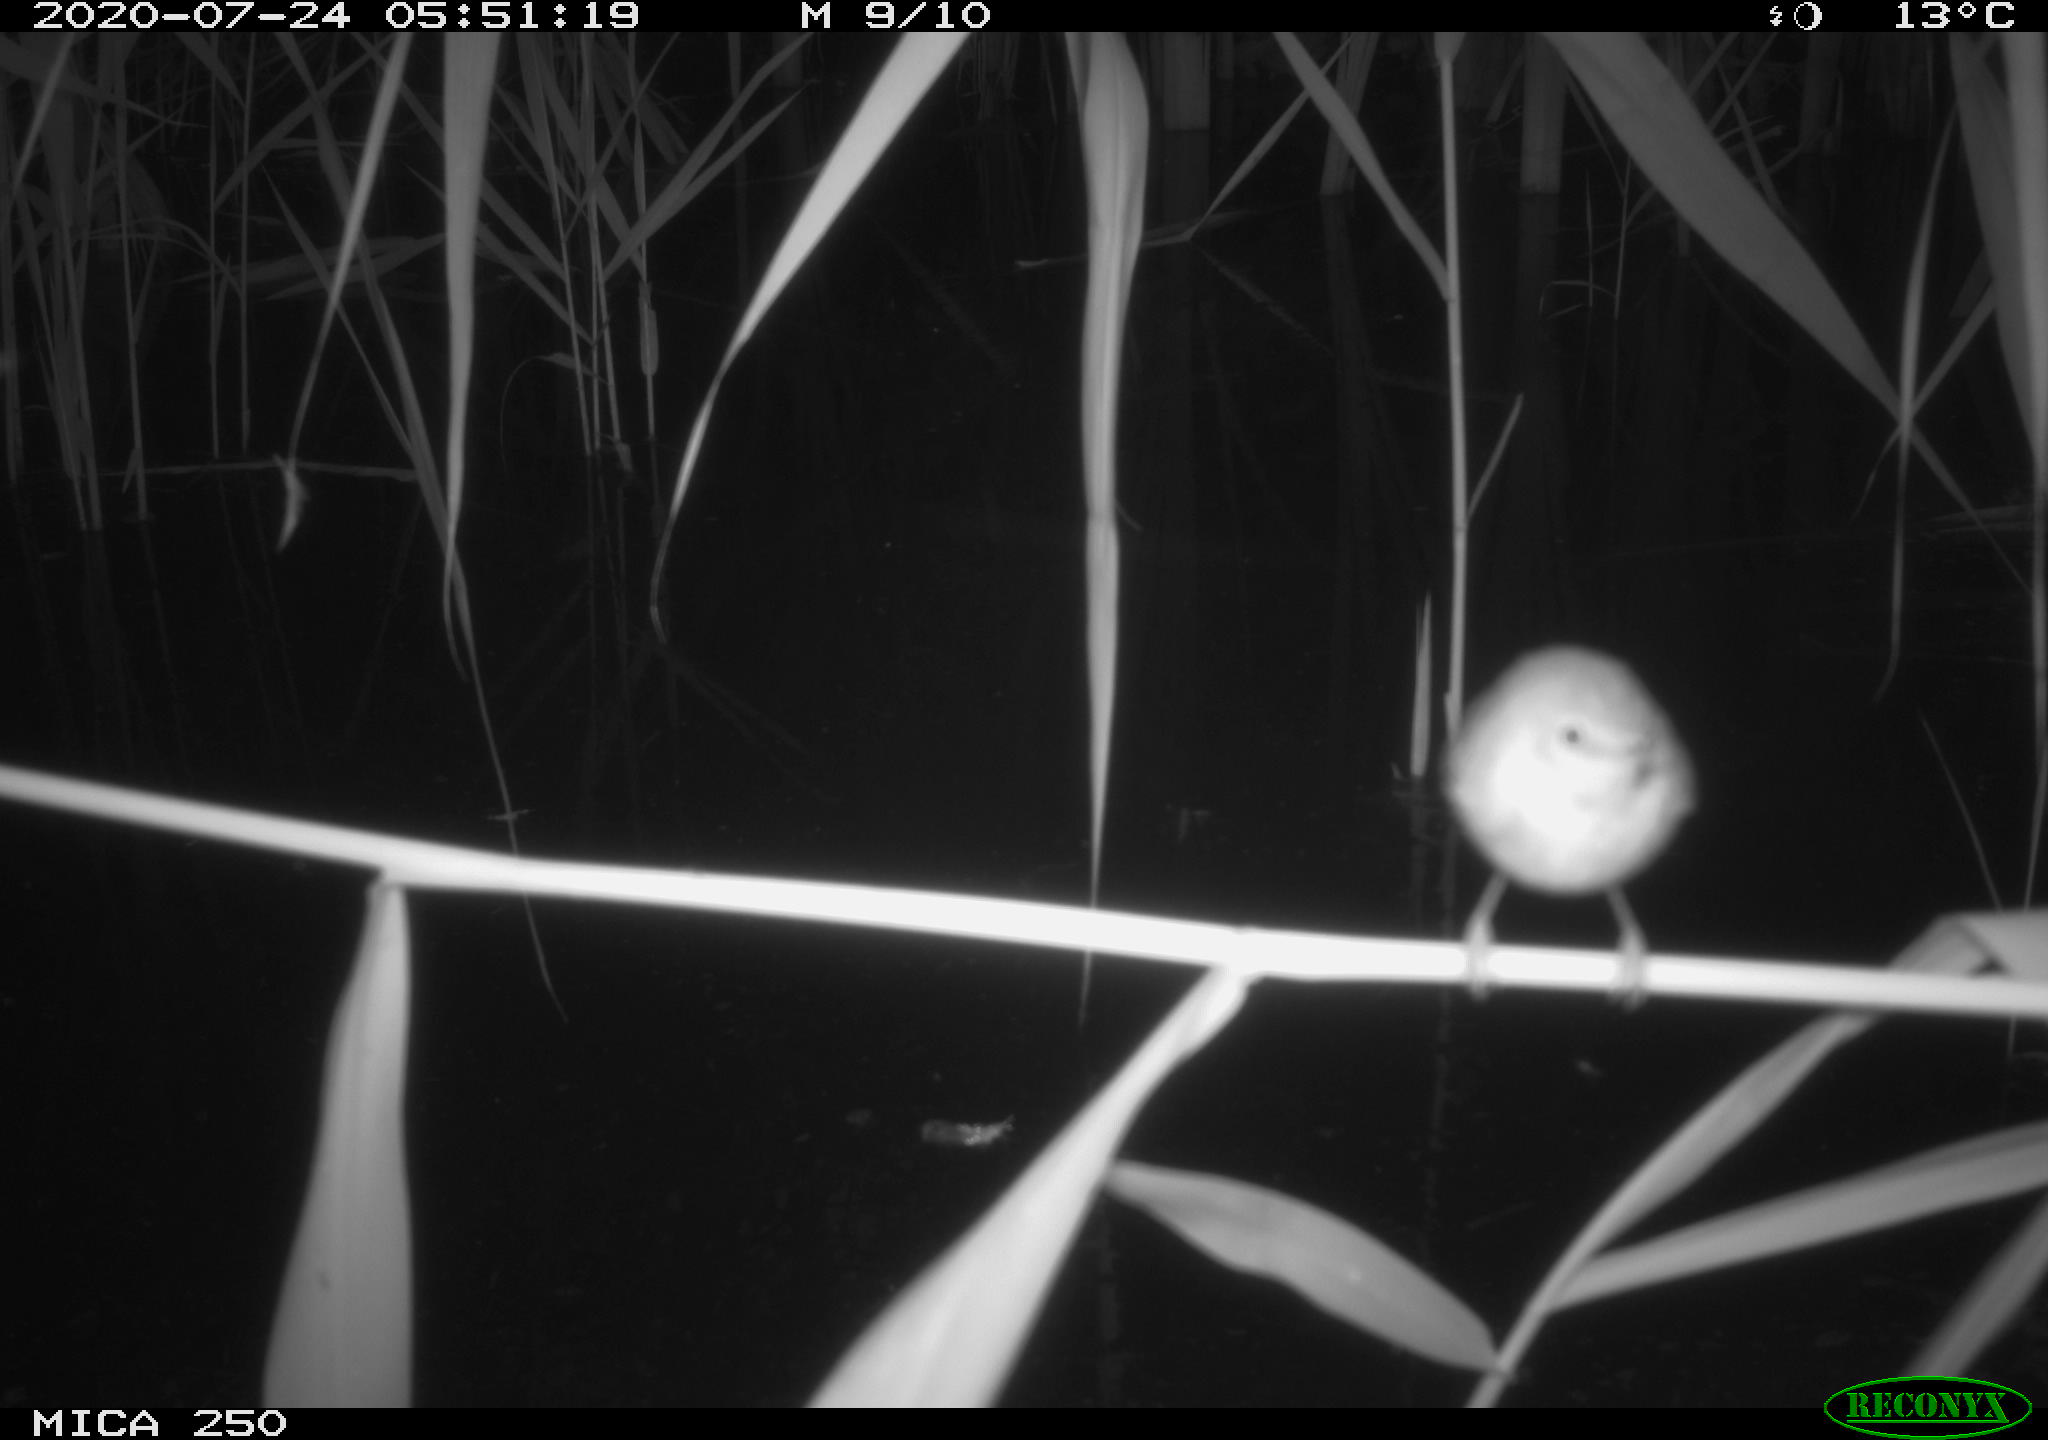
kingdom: Animalia
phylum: Chordata
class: Aves
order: Passeriformes
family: Acrocephalidae
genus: Acrocephalus
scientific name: Acrocephalus scirpaceus
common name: Eurasian reed warbler
